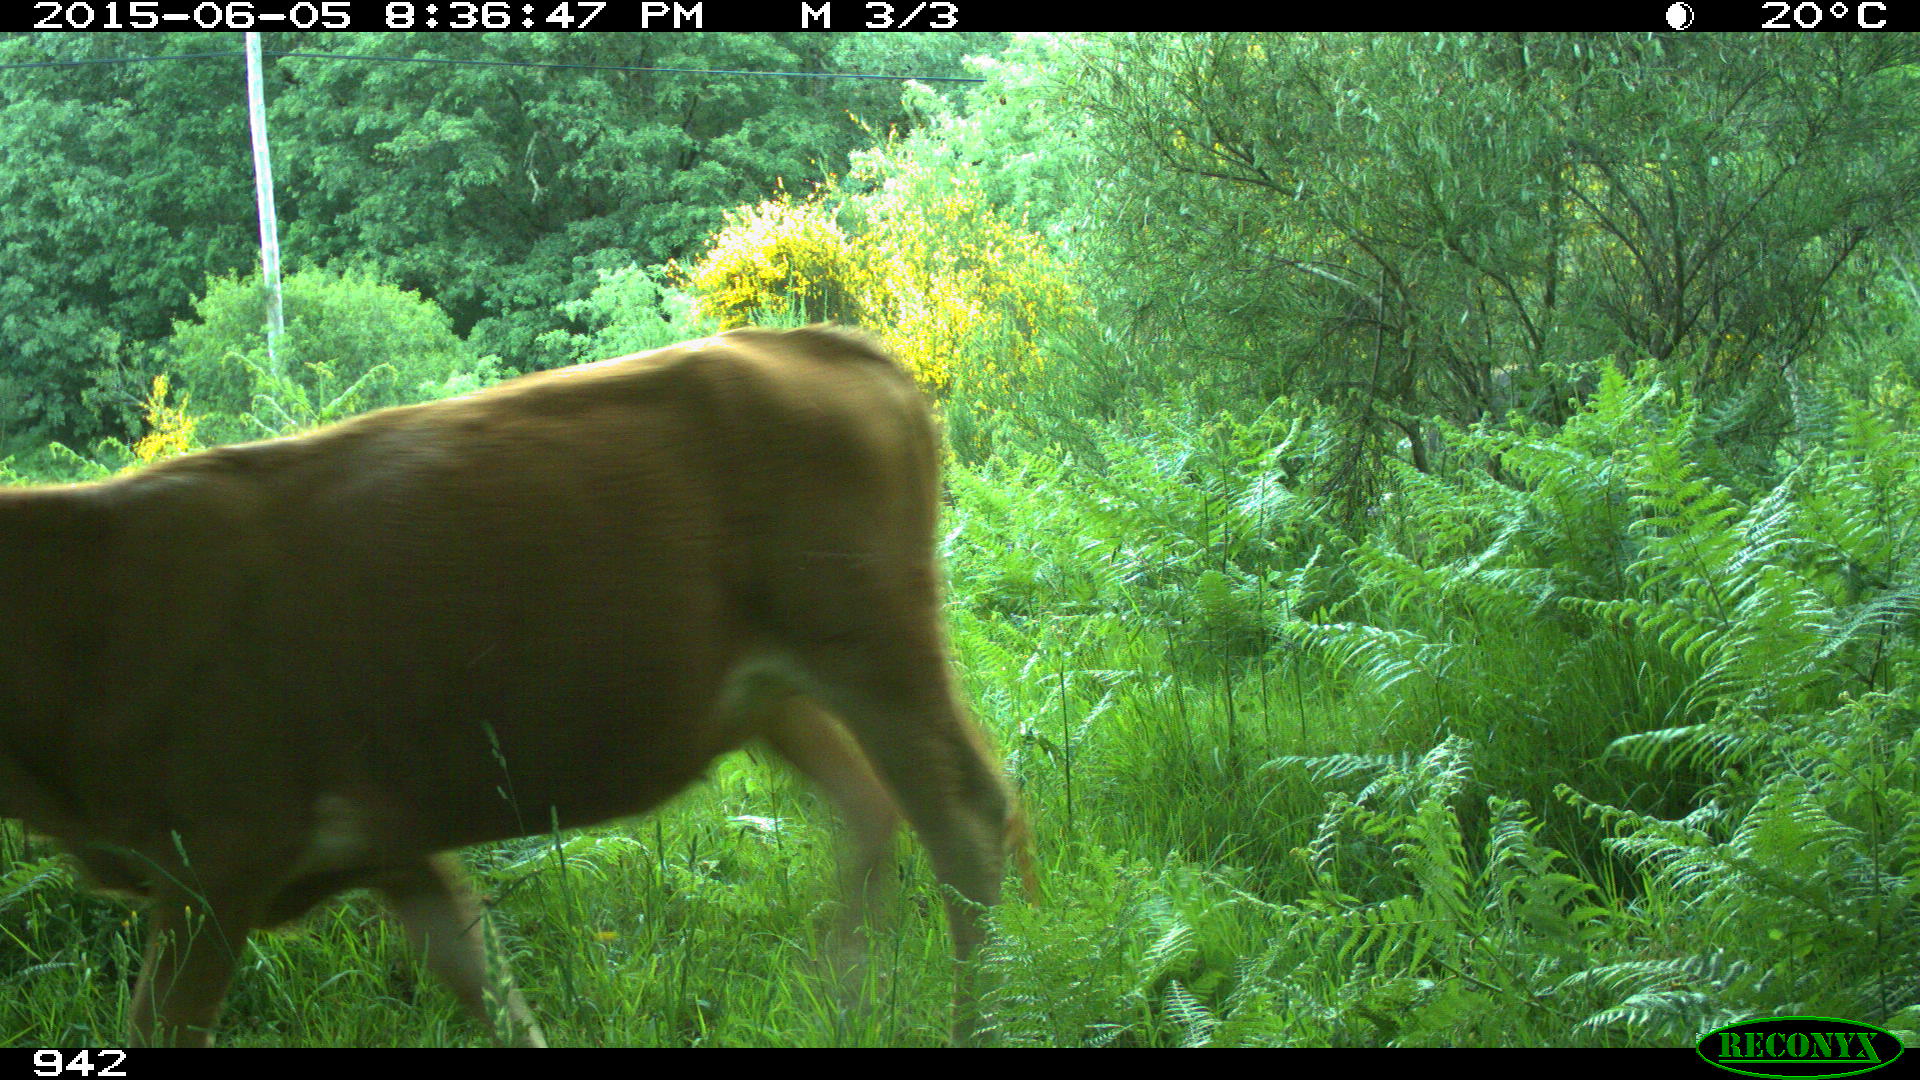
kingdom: Animalia
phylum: Chordata
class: Mammalia
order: Artiodactyla
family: Bovidae
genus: Bos
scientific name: Bos taurus
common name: Domesticated cattle
